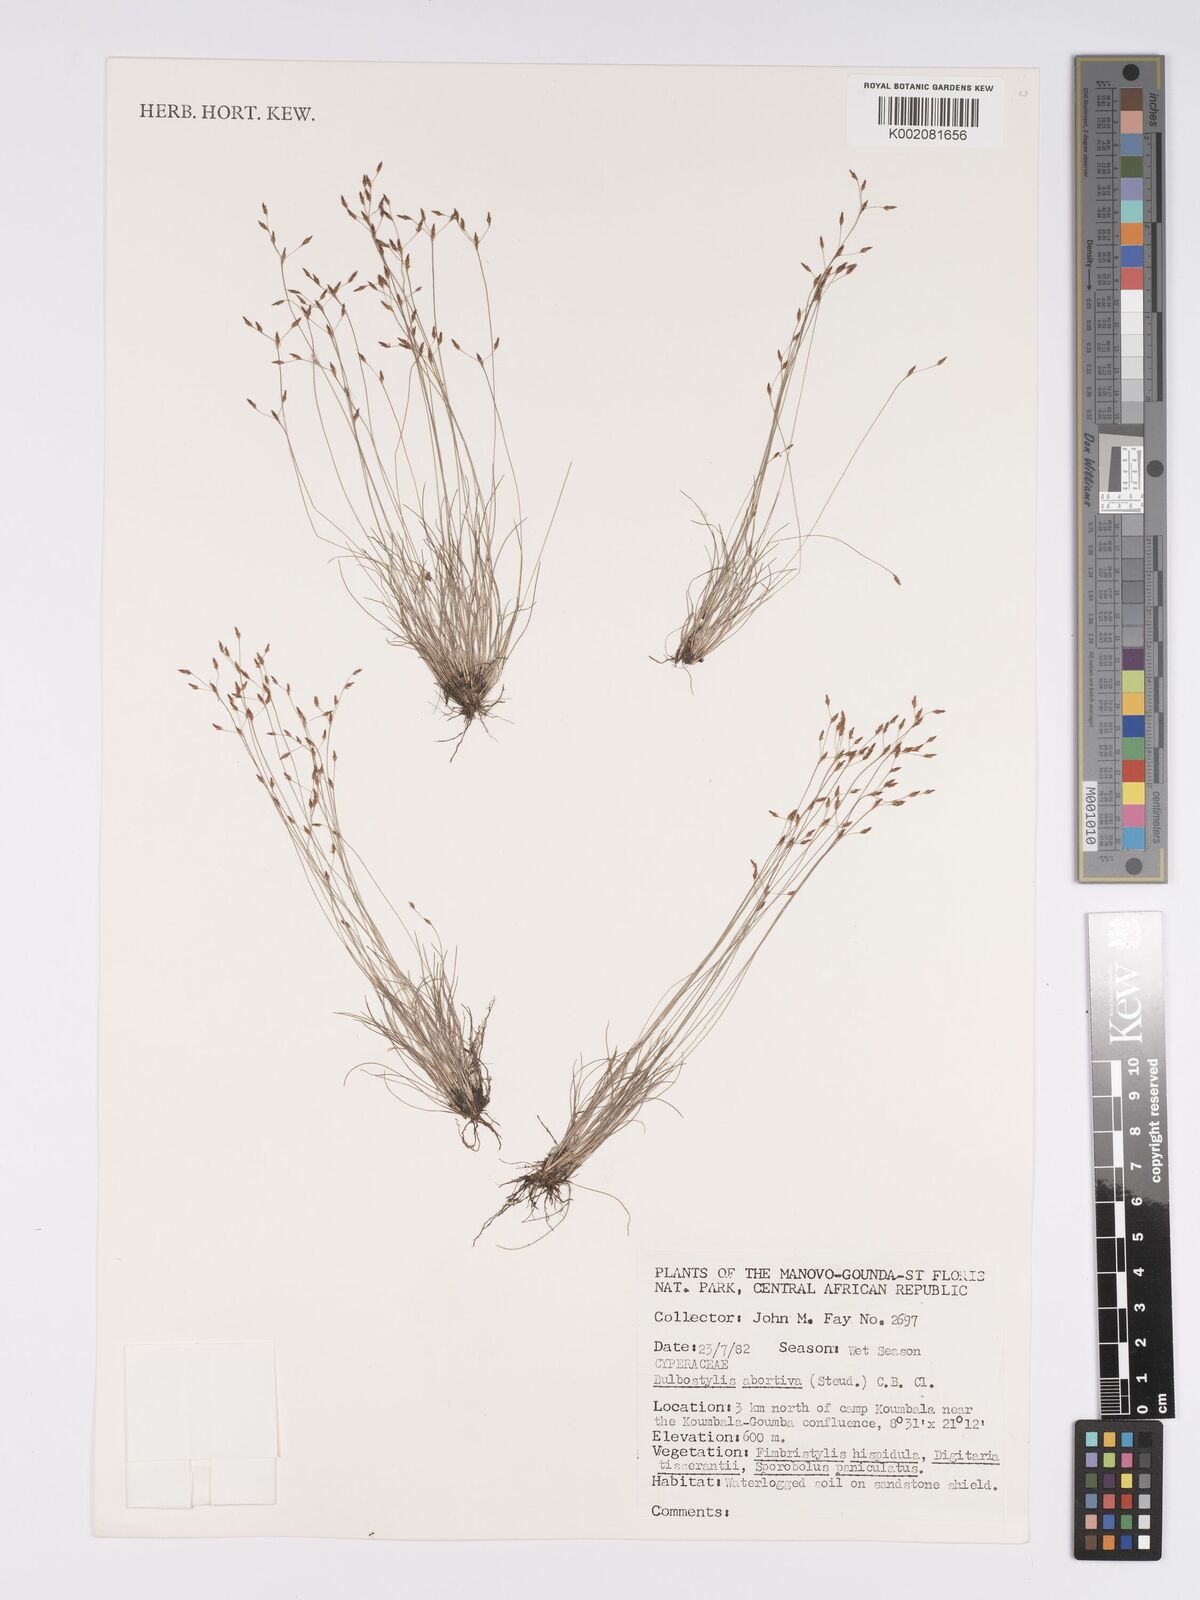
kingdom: Plantae
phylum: Tracheophyta
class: Liliopsida
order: Poales
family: Cyperaceae
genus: Bulbostylis
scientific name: Bulbostylis abortiva
